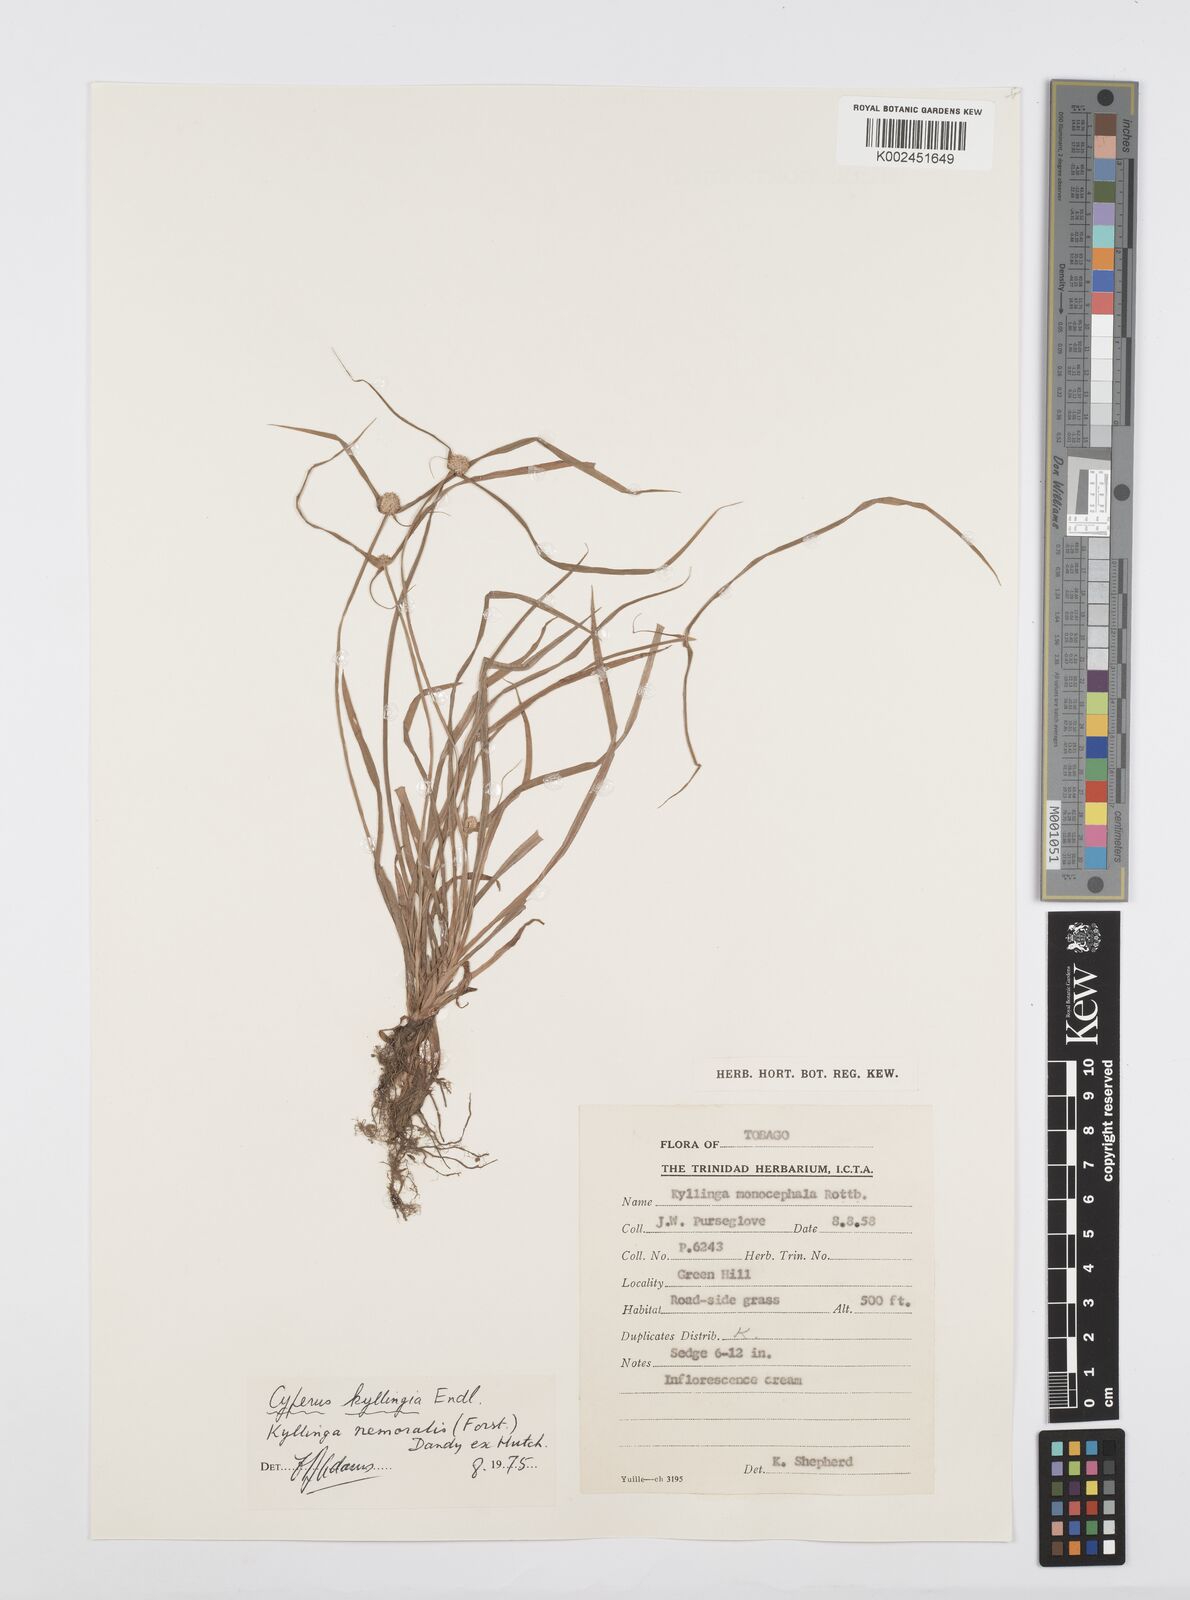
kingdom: Plantae
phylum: Tracheophyta
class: Liliopsida
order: Poales
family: Cyperaceae
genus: Cyperus
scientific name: Cyperus
